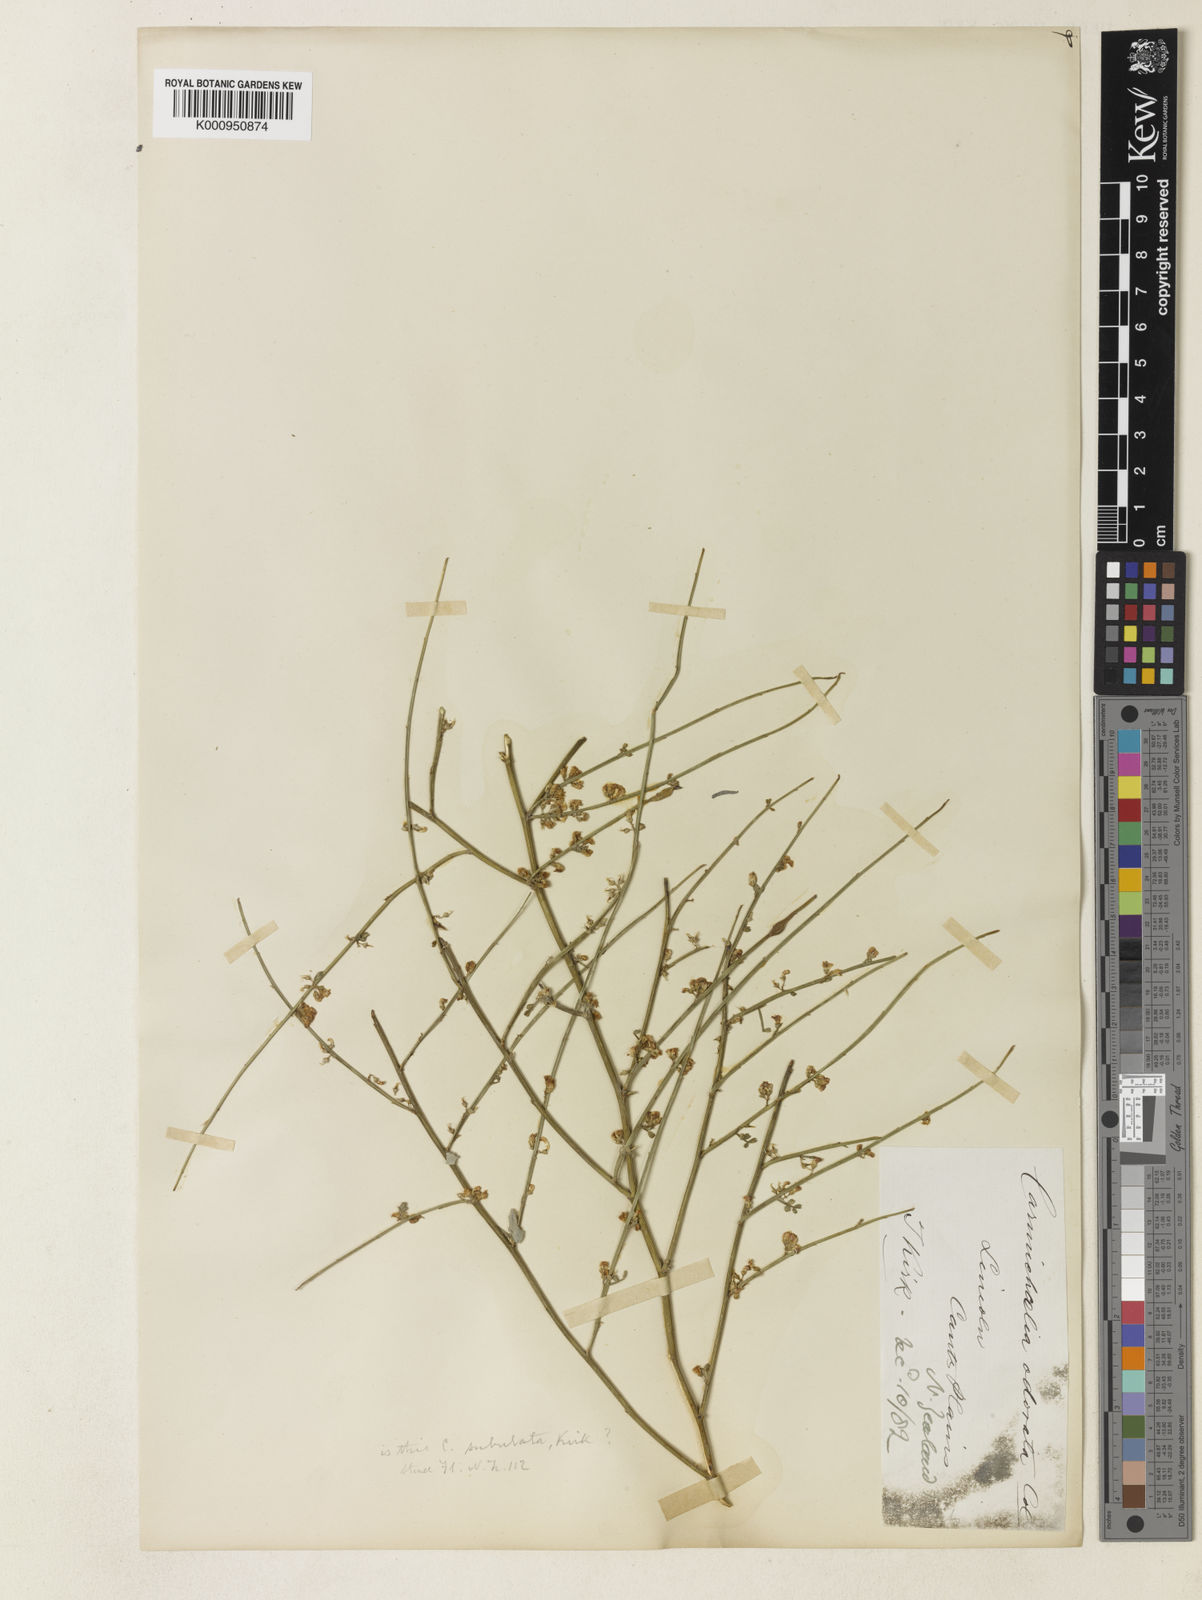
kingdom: Plantae
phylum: Tracheophyta
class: Magnoliopsida
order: Fabales
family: Fabaceae
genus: Carmichaelia
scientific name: Carmichaelia australis
